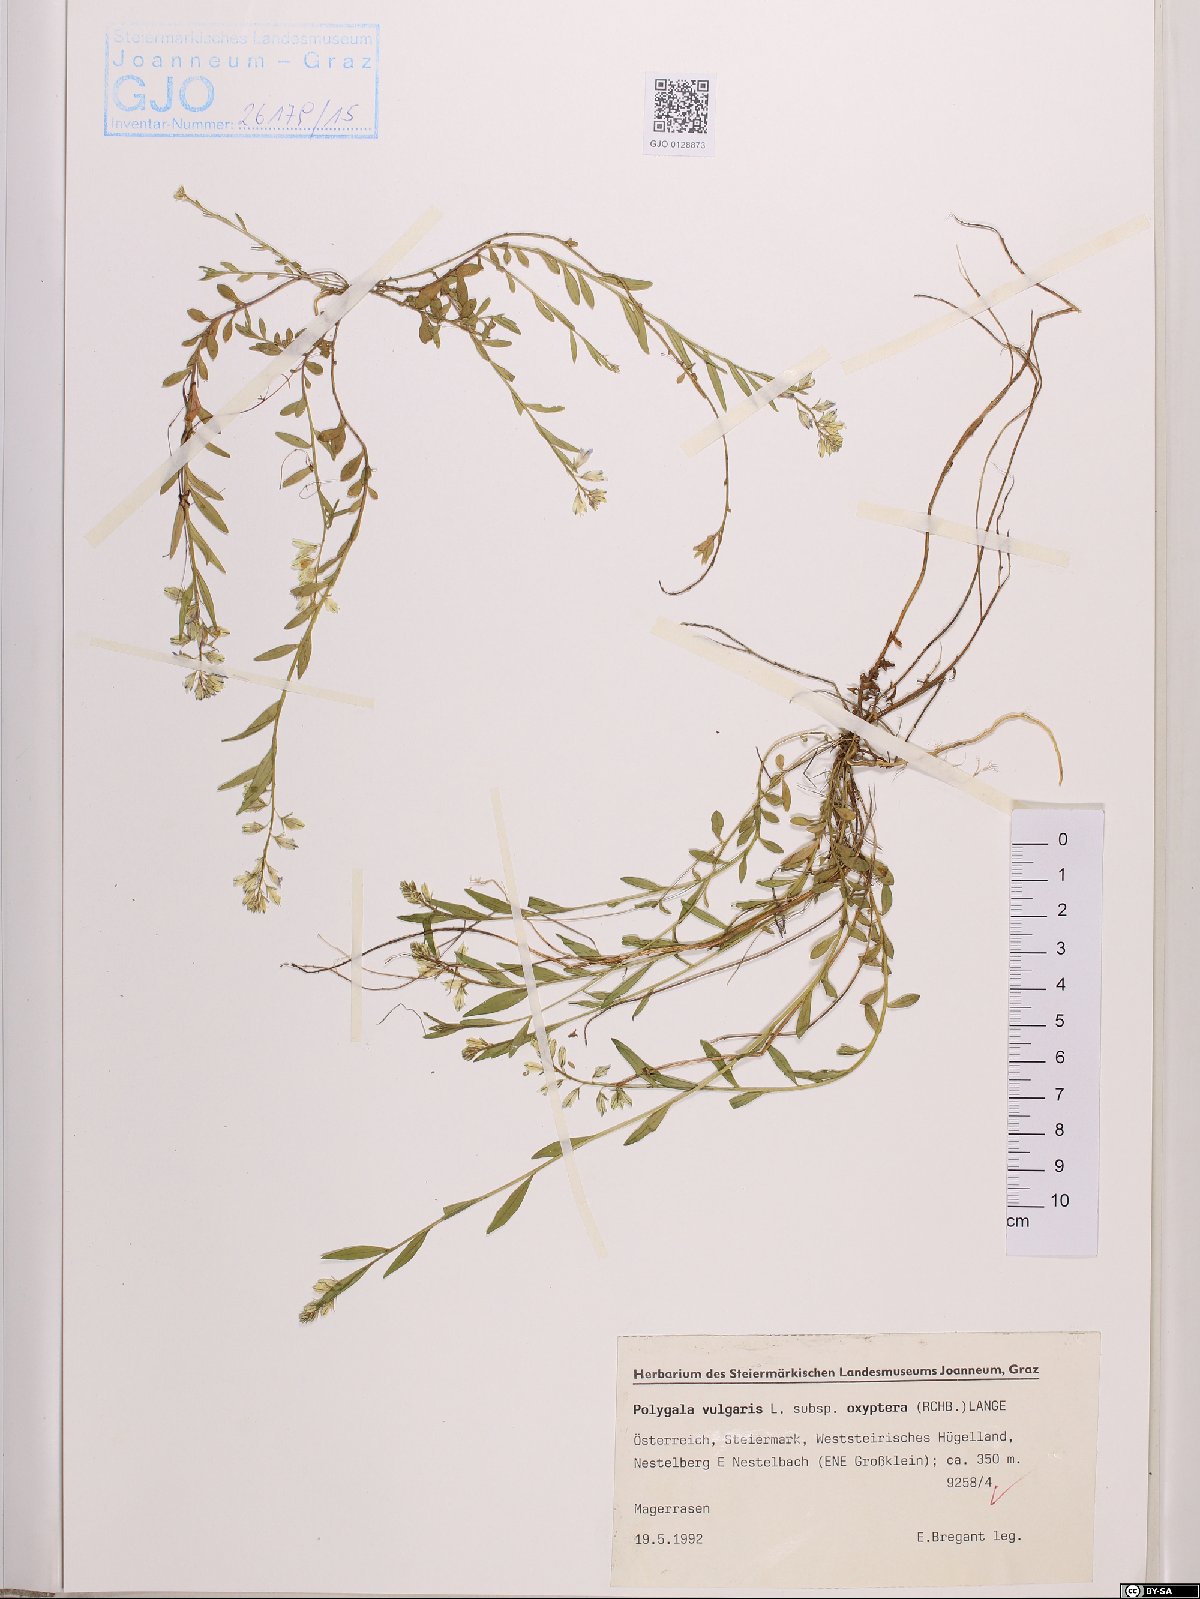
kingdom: Plantae
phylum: Tracheophyta
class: Magnoliopsida
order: Fabales
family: Polygalaceae
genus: Polygala
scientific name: Polygala vulgaris
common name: Common milkwort
